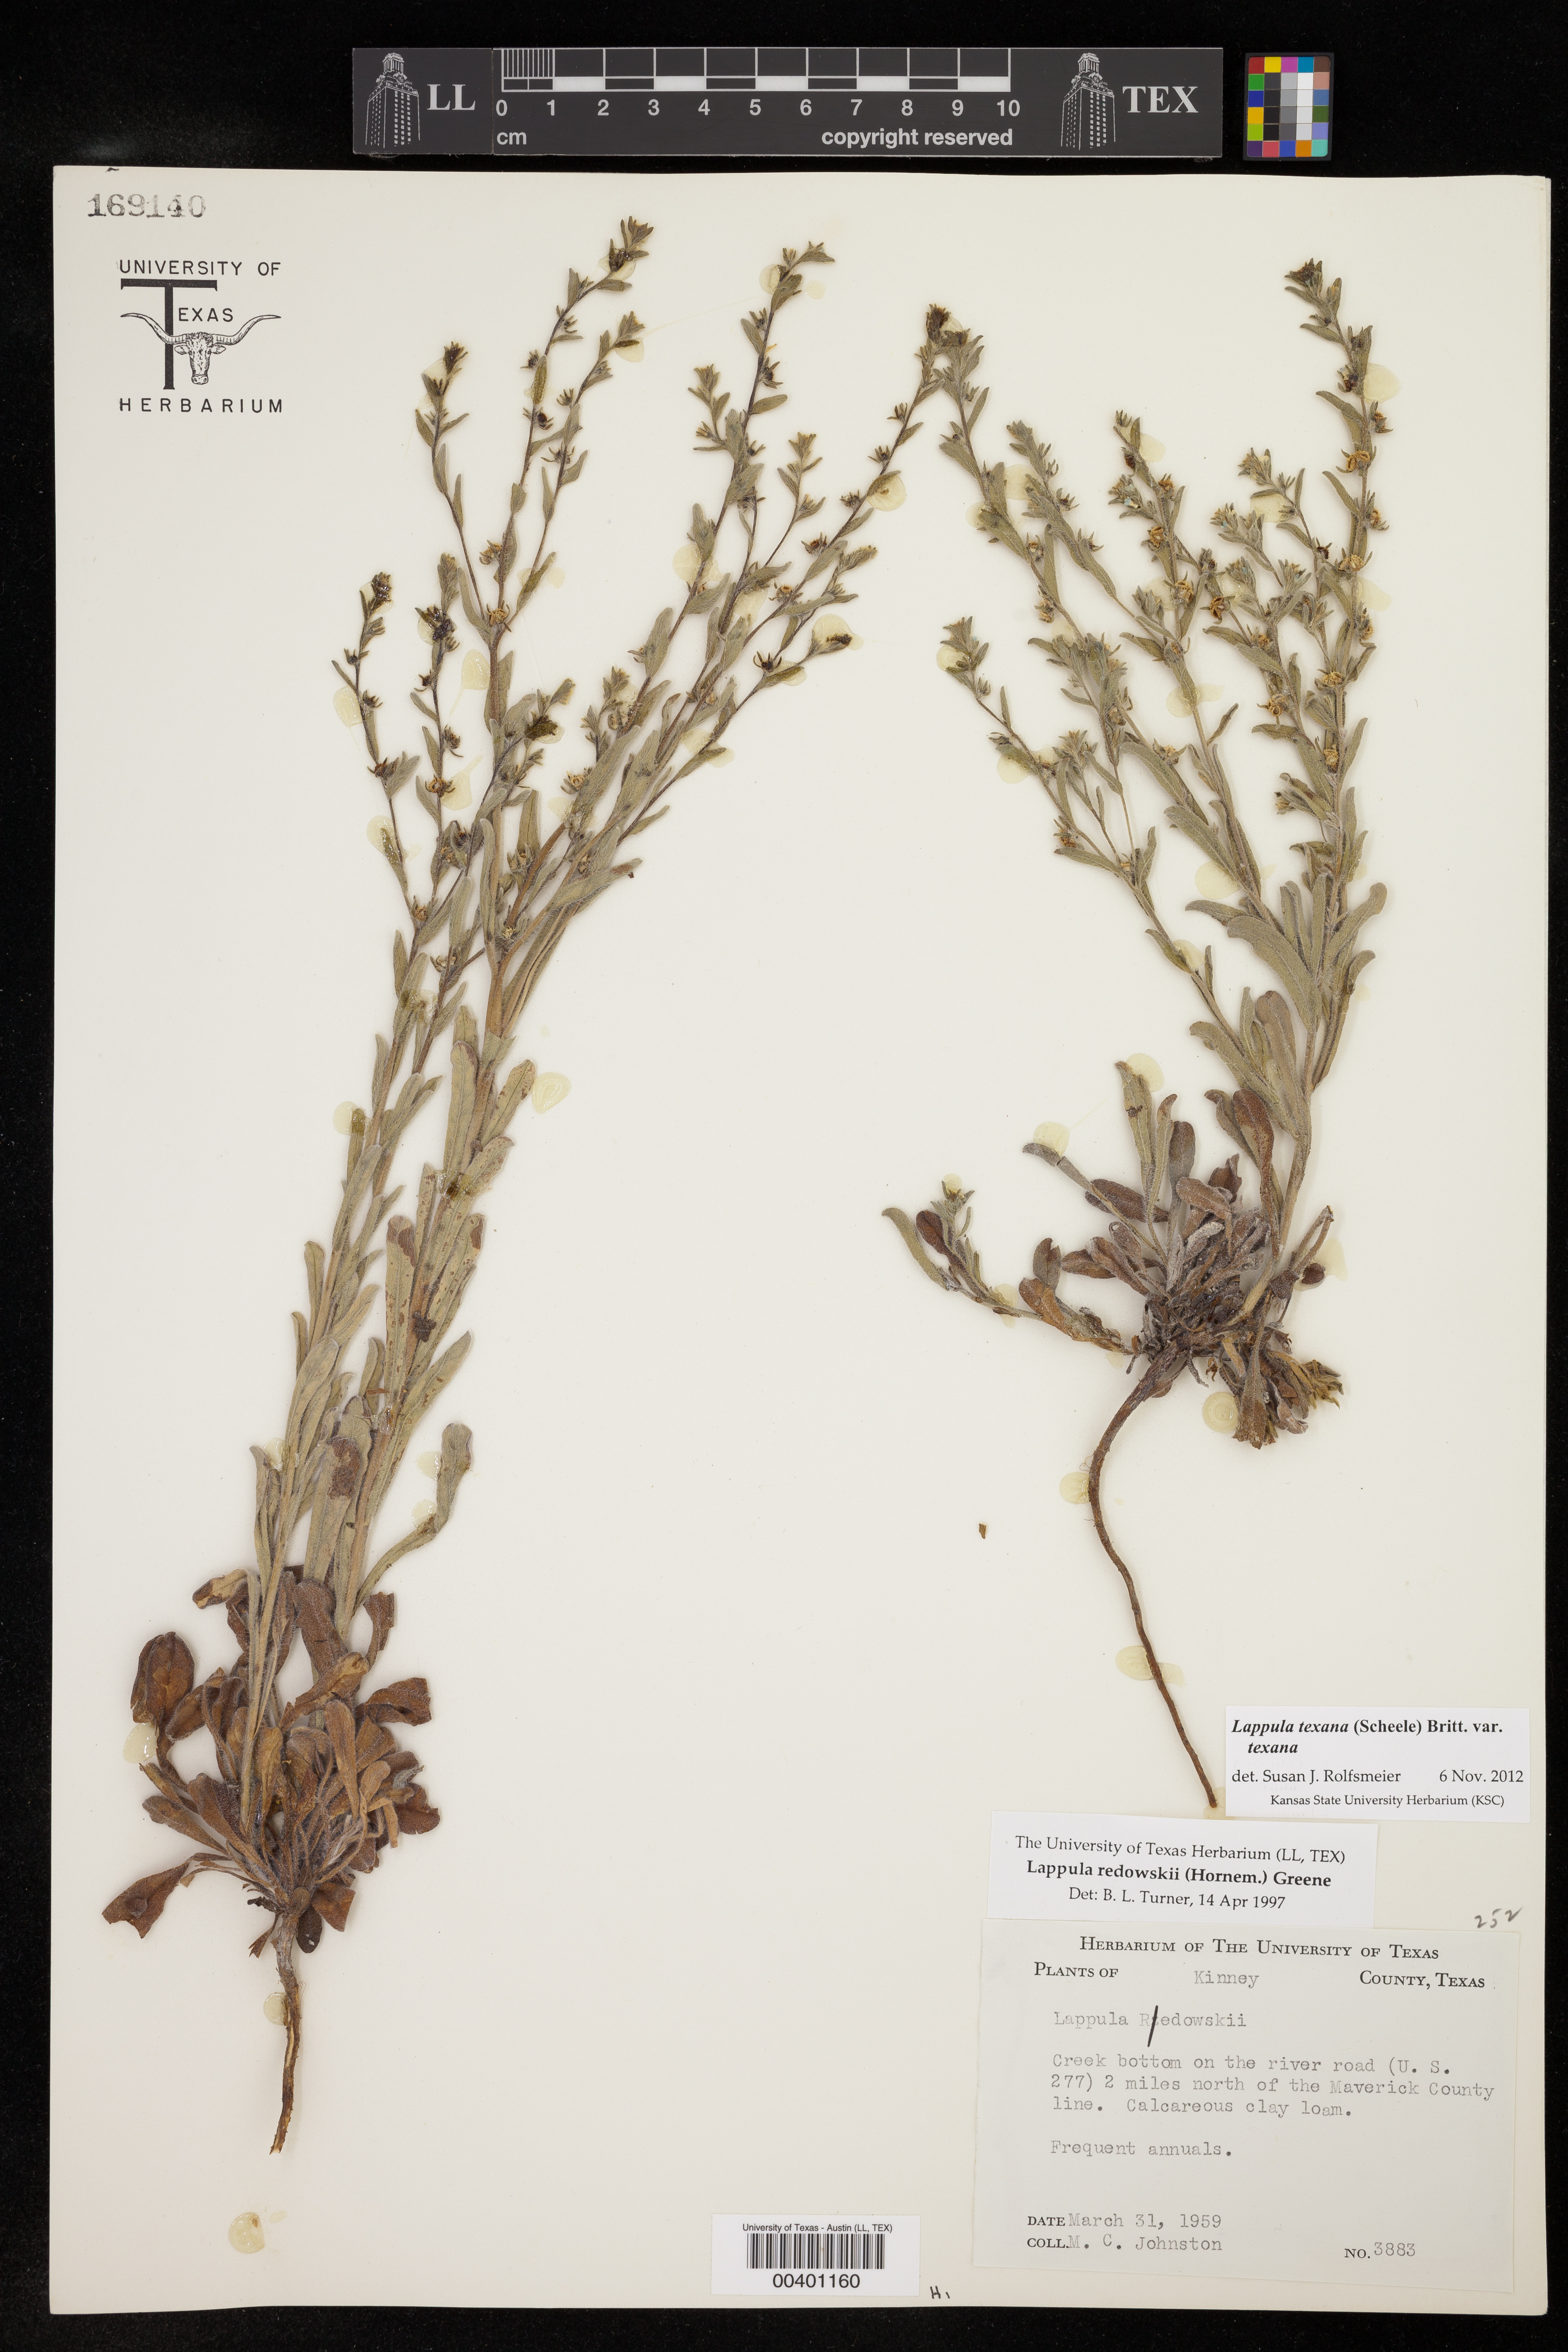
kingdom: Plantae
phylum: Tracheophyta
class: Magnoliopsida
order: Boraginales
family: Boraginaceae
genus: Lappula
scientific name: Lappula texana
